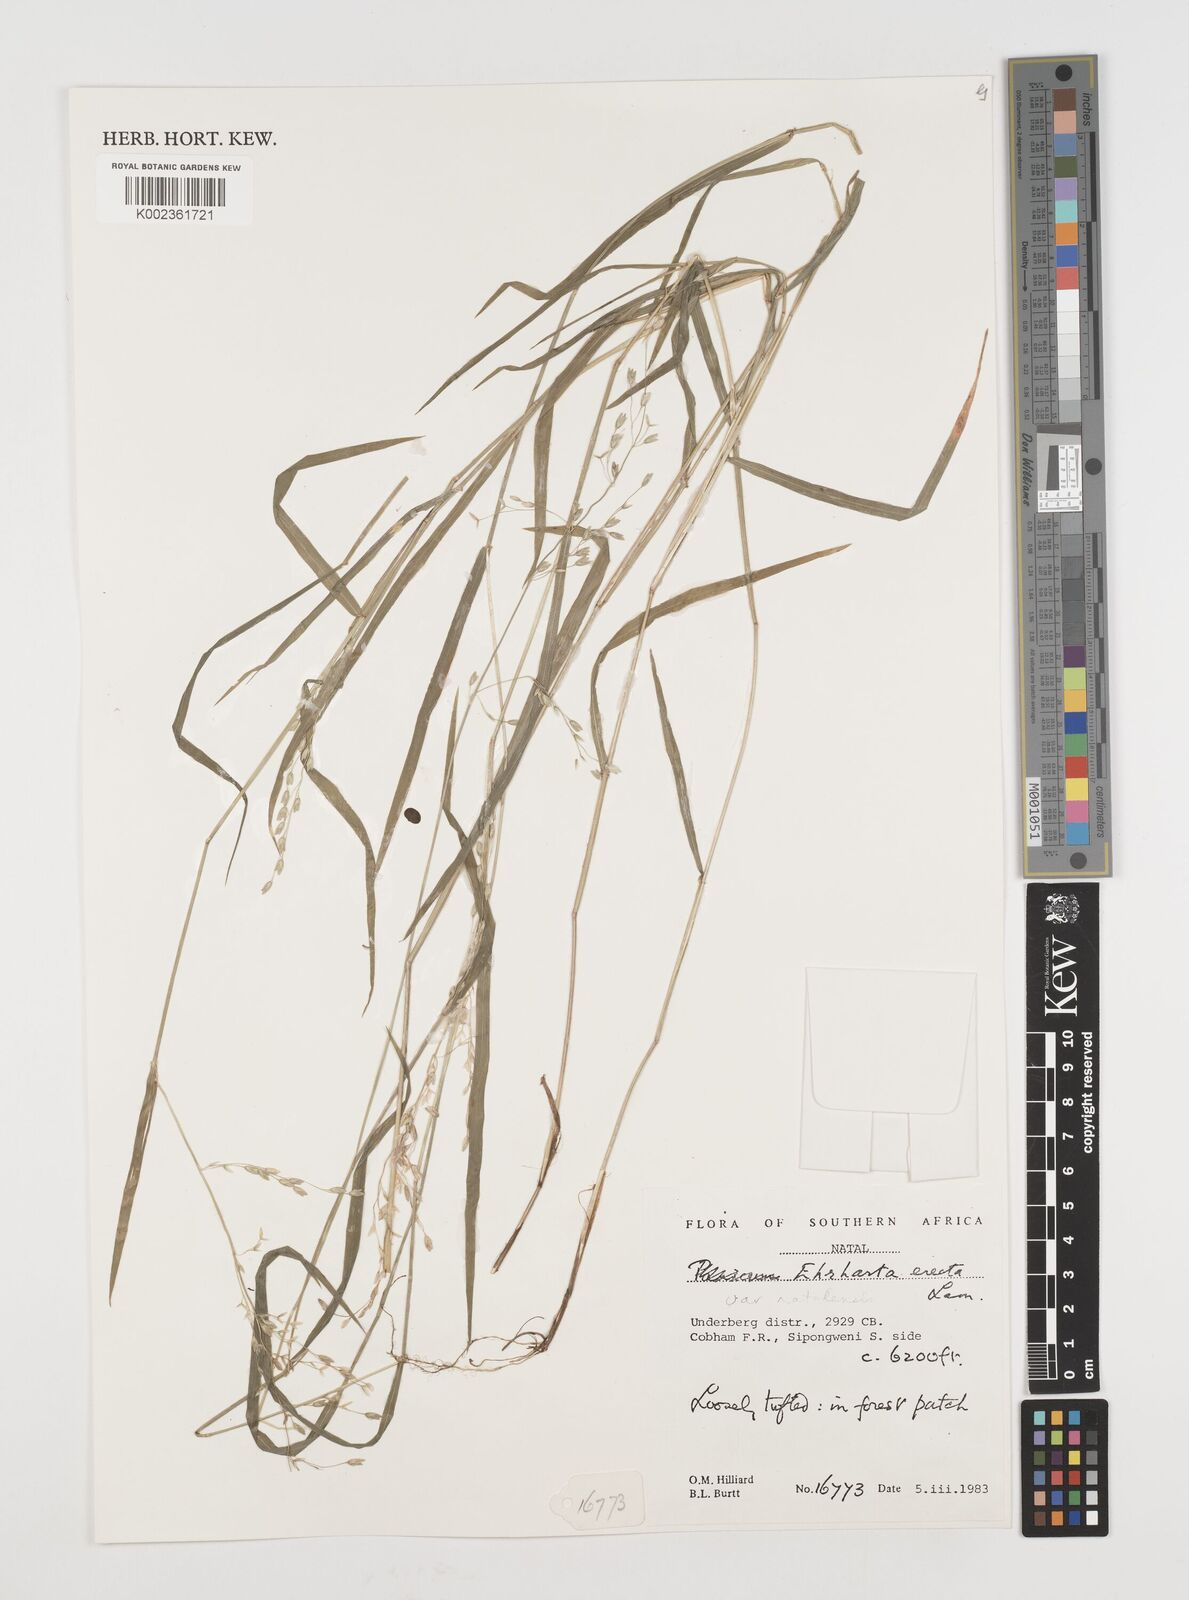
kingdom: Plantae
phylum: Tracheophyta
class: Liliopsida
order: Poales
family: Poaceae
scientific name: Poaceae
